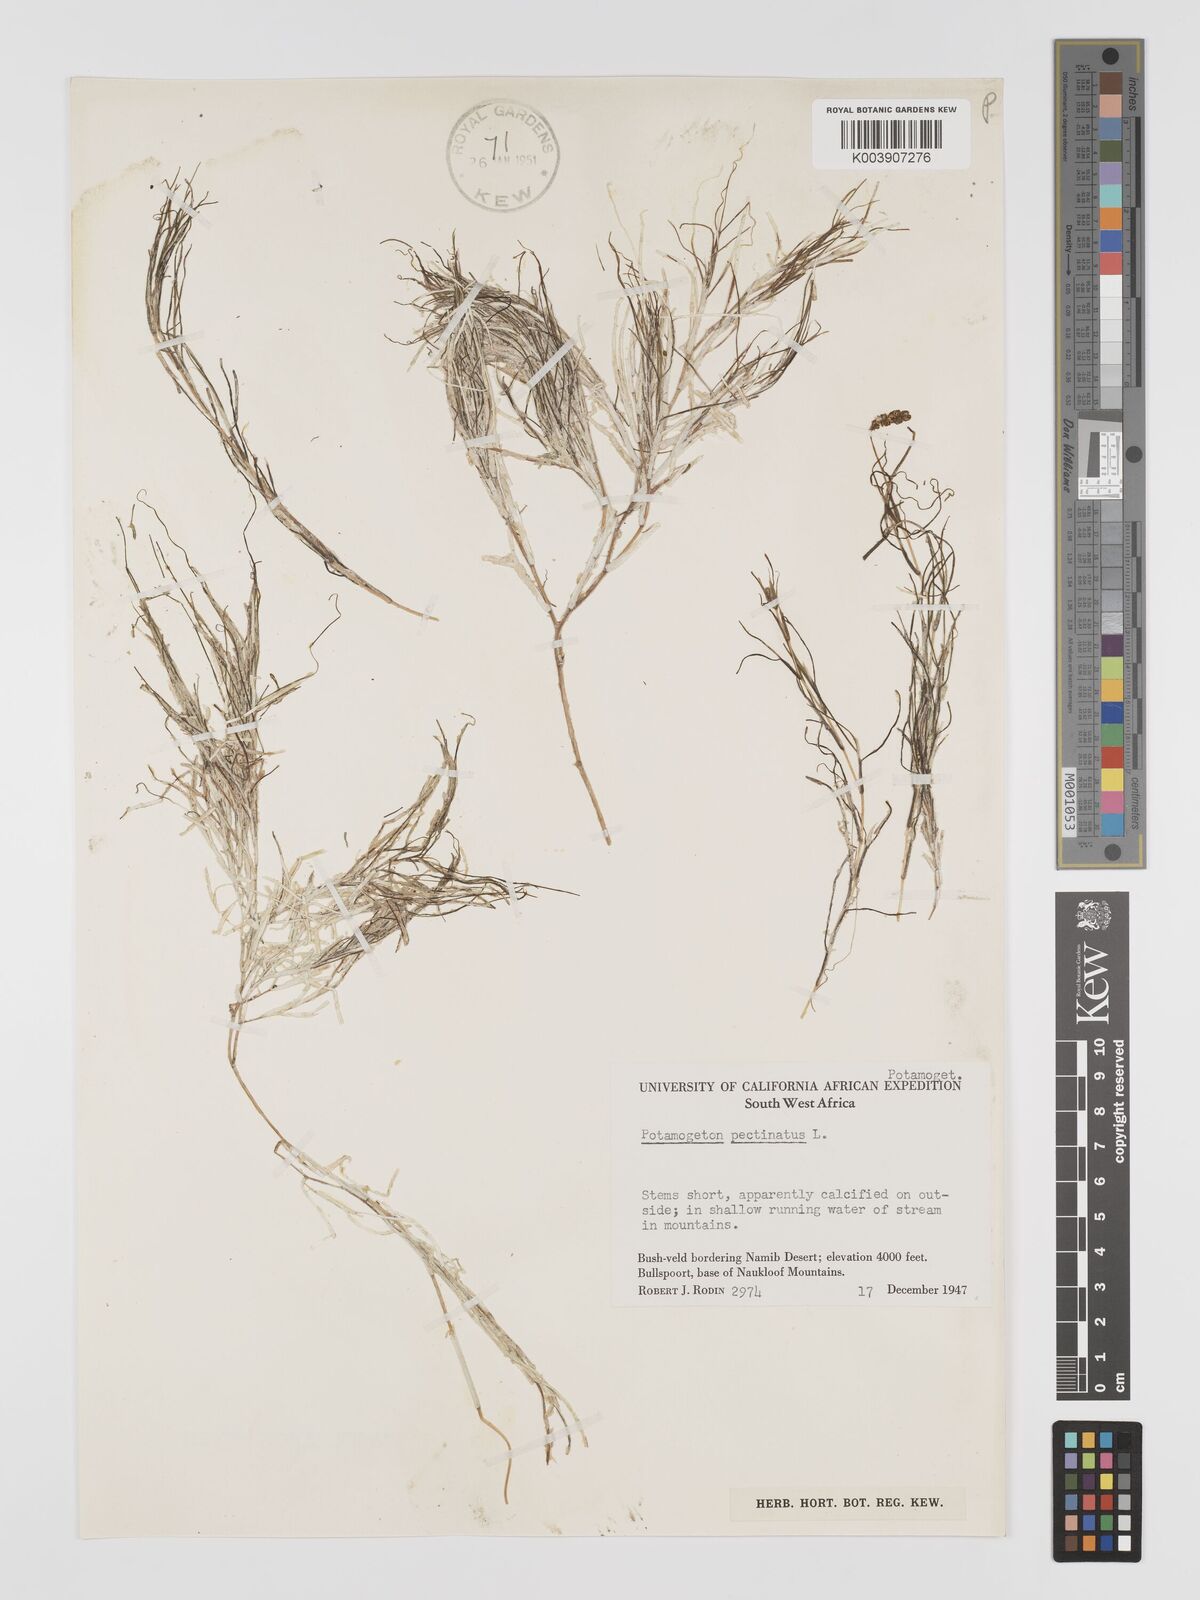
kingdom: Plantae
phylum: Tracheophyta
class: Liliopsida
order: Alismatales
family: Potamogetonaceae
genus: Stuckenia
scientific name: Stuckenia pectinata
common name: Sago pondweed
